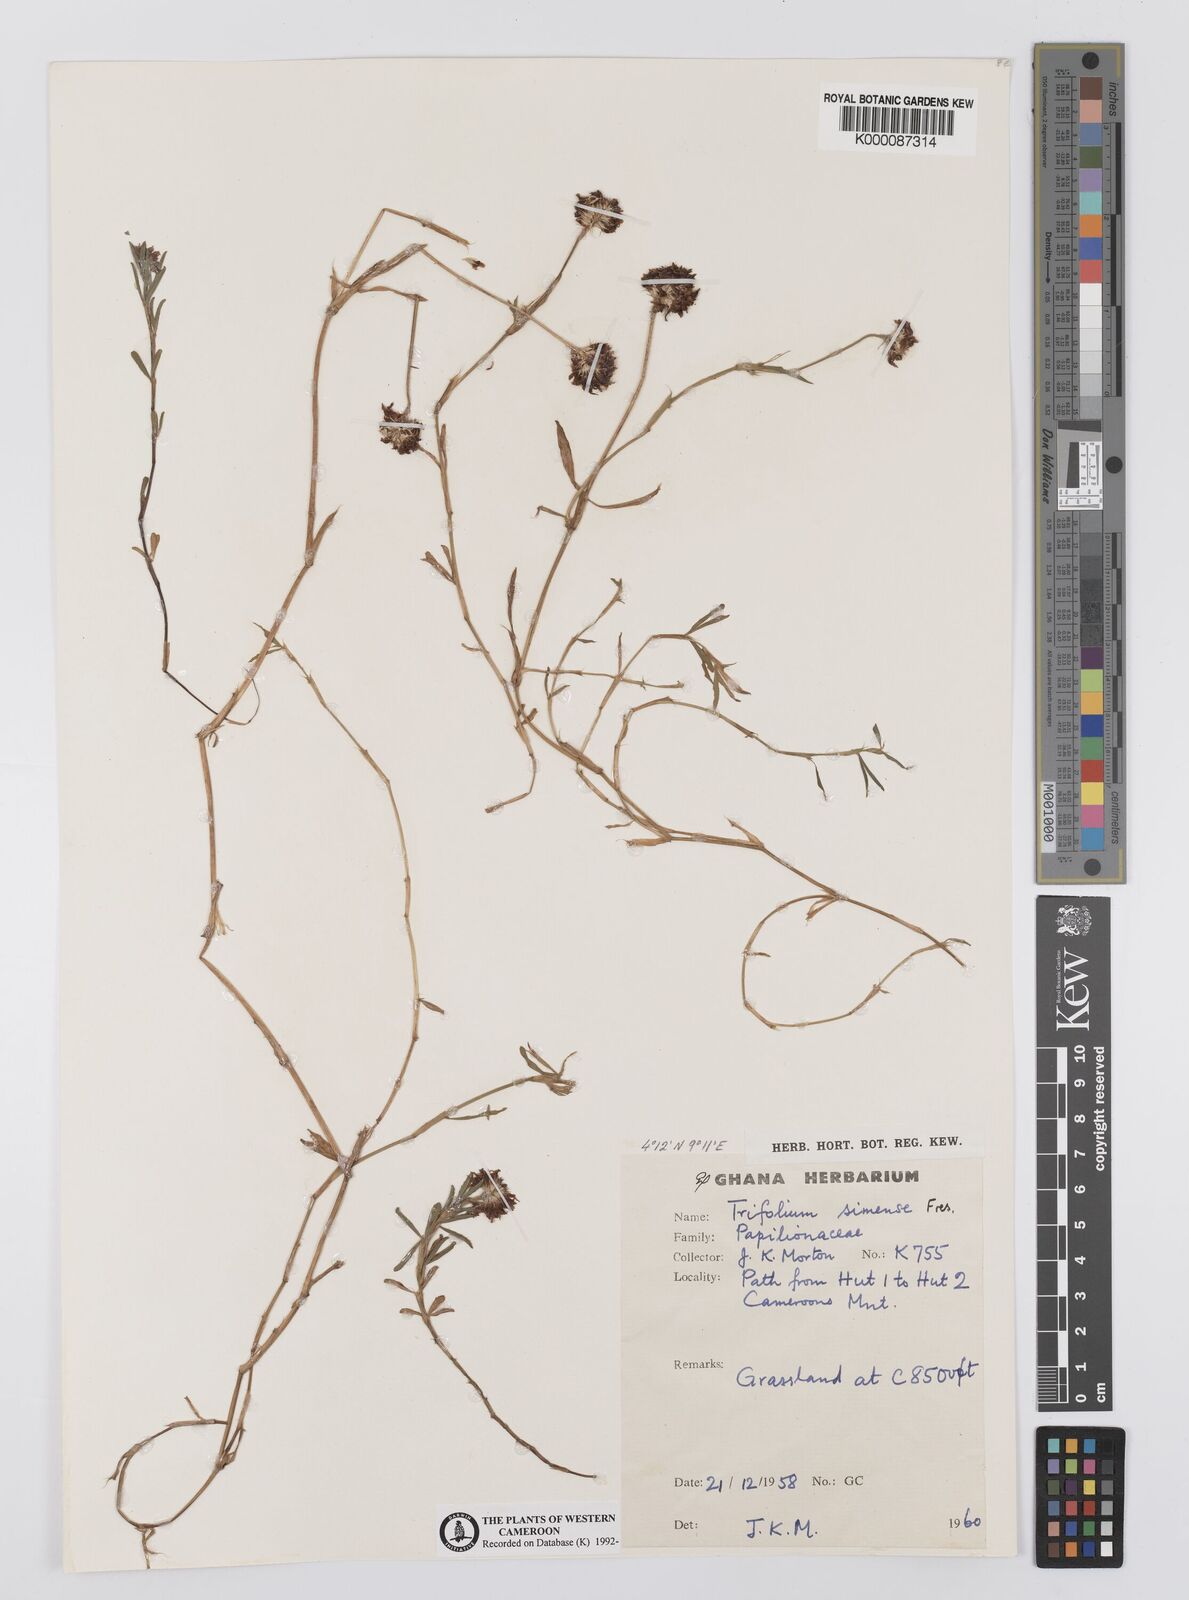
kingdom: Plantae
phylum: Tracheophyta
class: Magnoliopsida
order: Fabales
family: Fabaceae
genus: Trifolium
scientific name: Trifolium simense
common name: Simen clover
